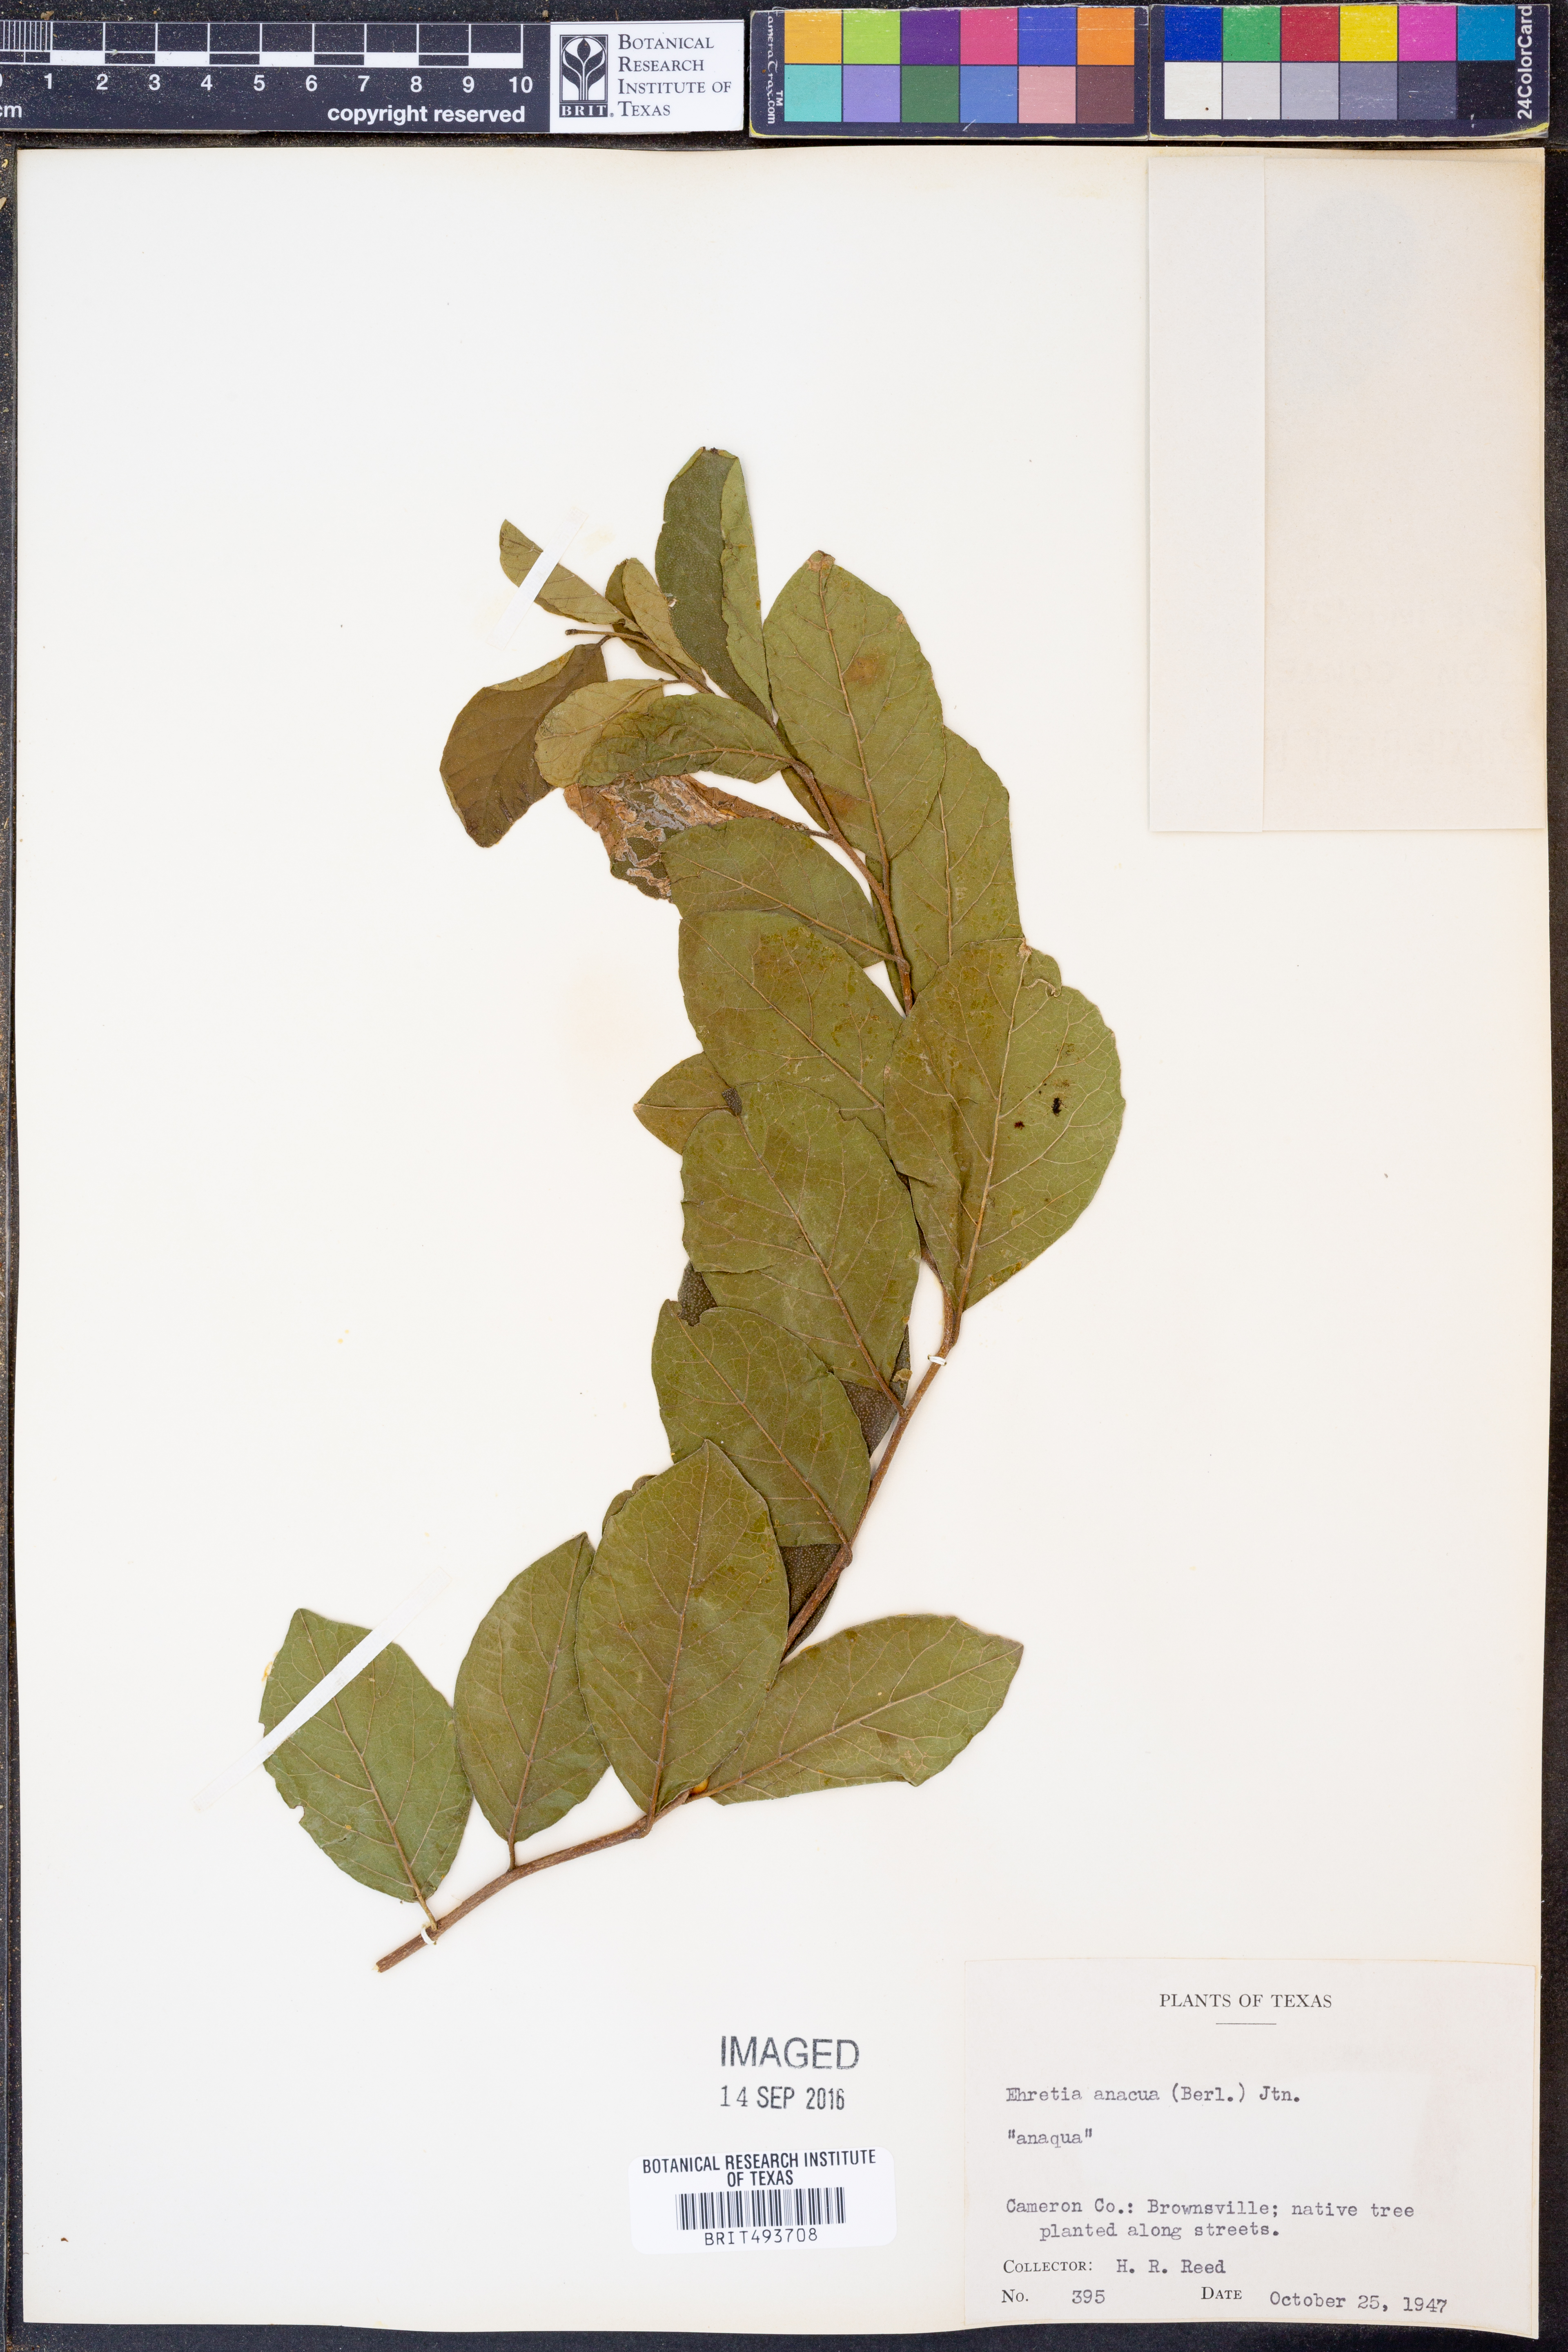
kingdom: Plantae
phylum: Tracheophyta
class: Magnoliopsida
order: Boraginales
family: Ehretiaceae
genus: Ehretia
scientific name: Ehretia anacua
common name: Sugarberry
